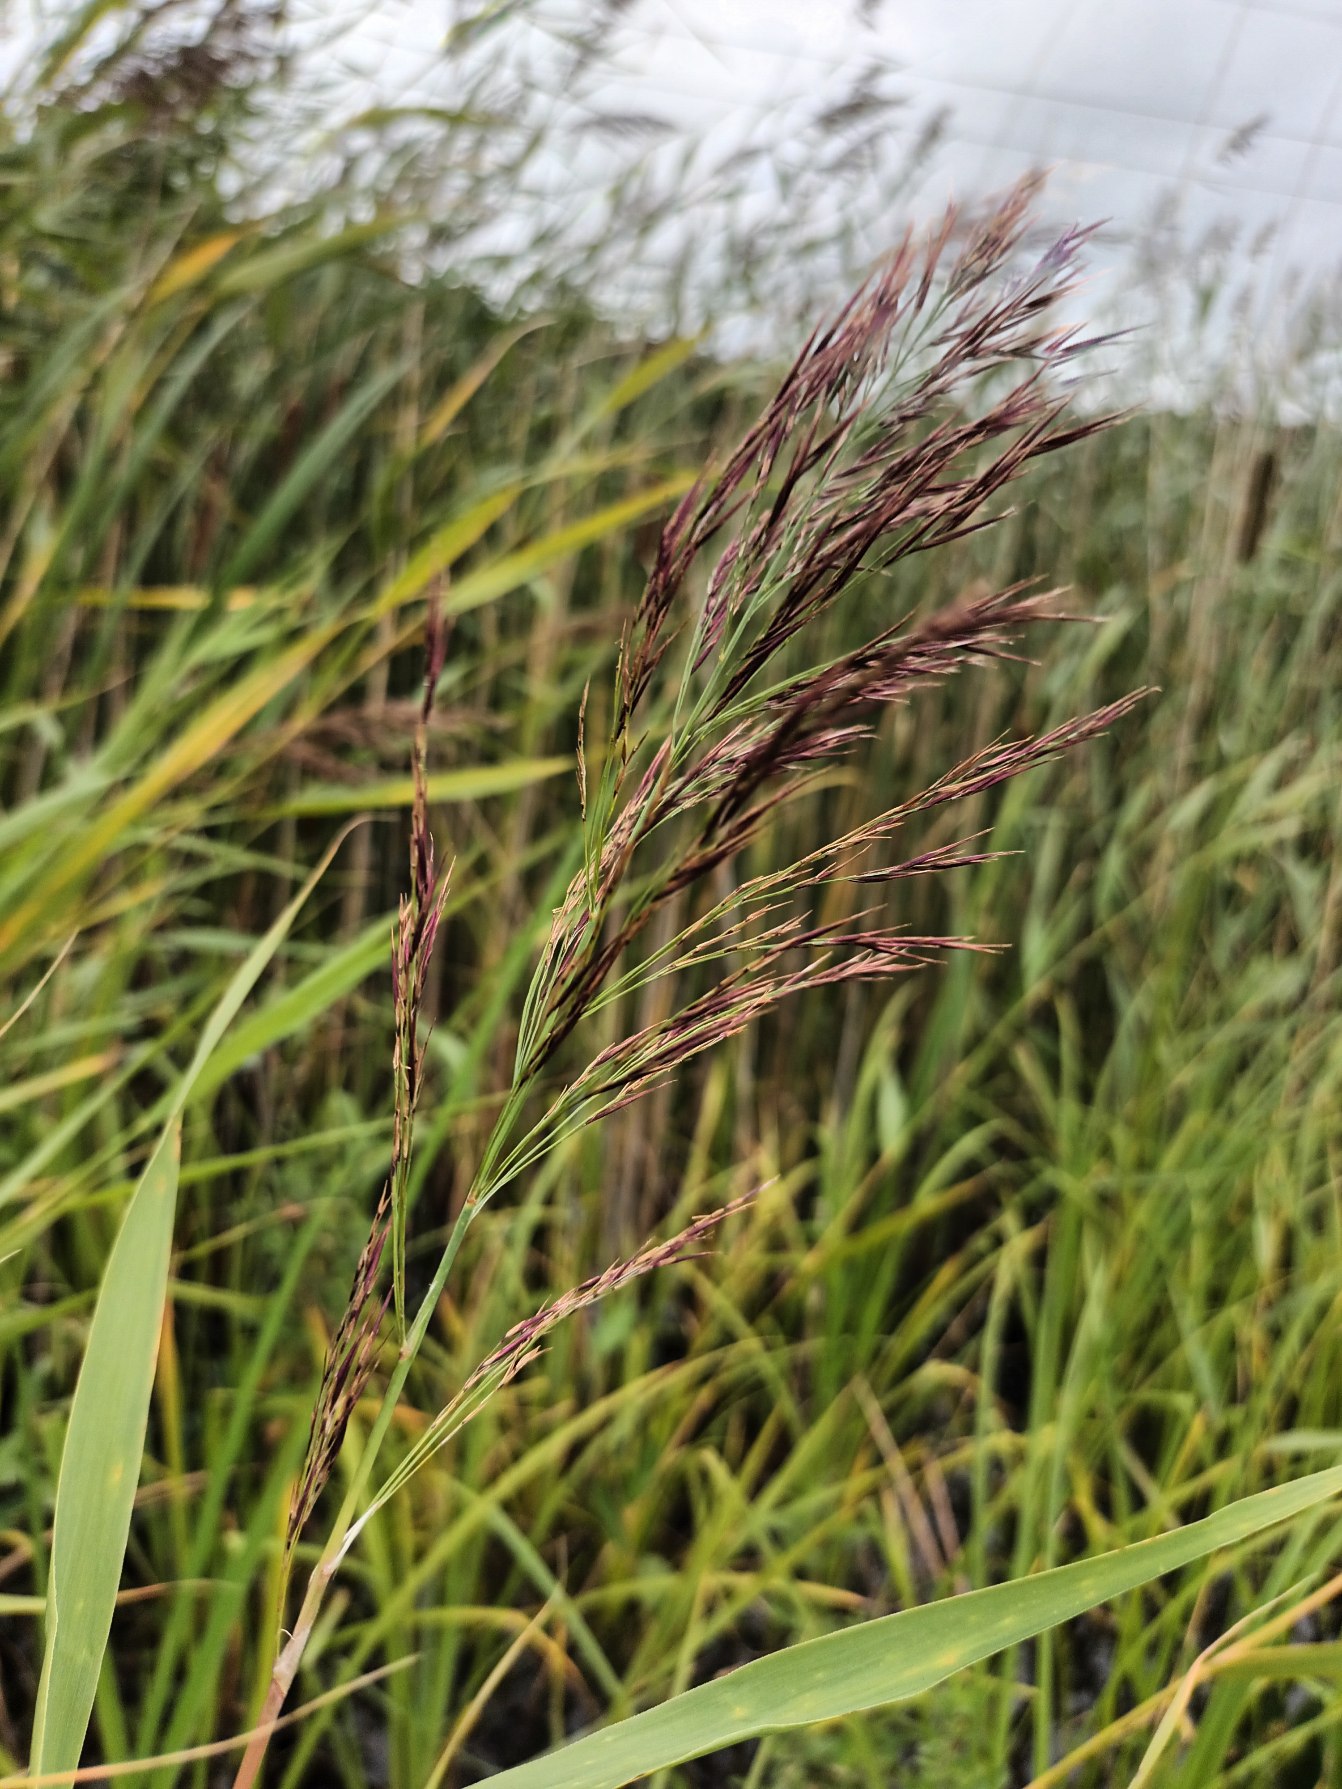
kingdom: Plantae
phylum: Tracheophyta
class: Liliopsida
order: Poales
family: Poaceae
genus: Phragmites
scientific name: Phragmites australis
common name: Tagrør
